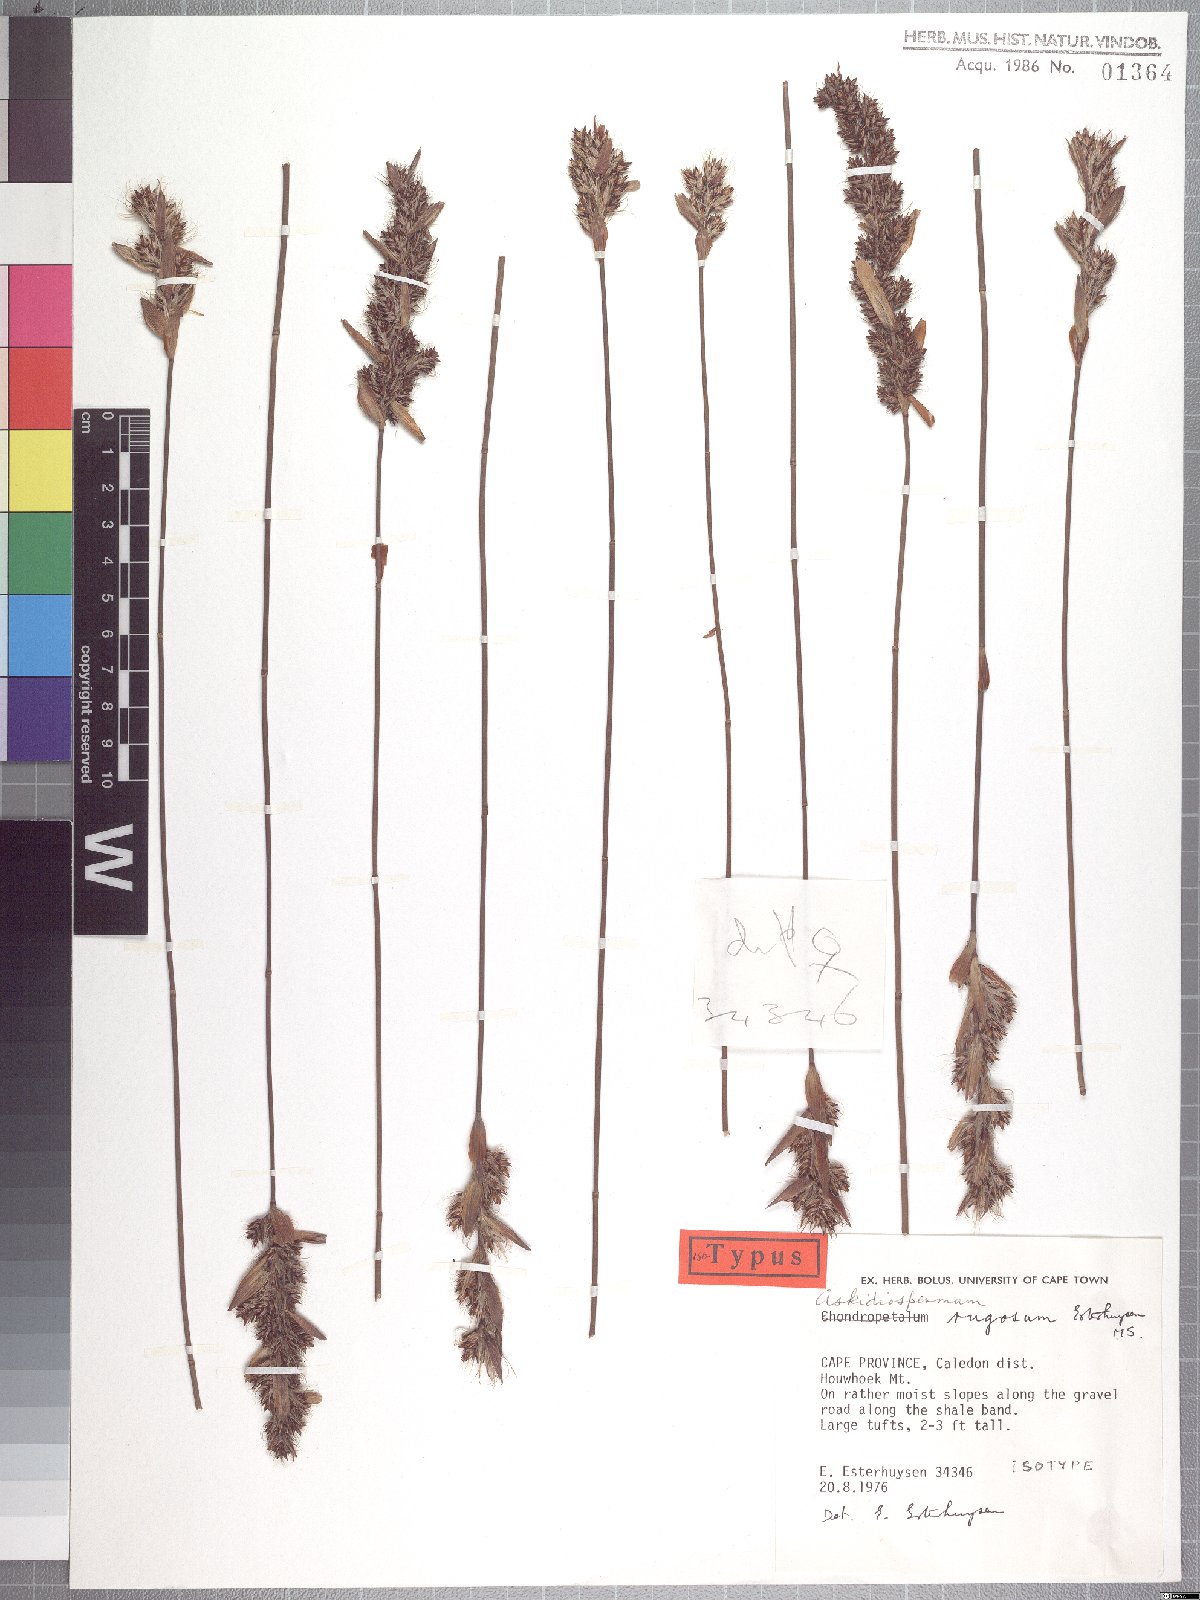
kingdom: Plantae
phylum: Tracheophyta
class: Liliopsida
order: Poales
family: Restionaceae
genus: Askidiosperma
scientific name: Askidiosperma rugosum
